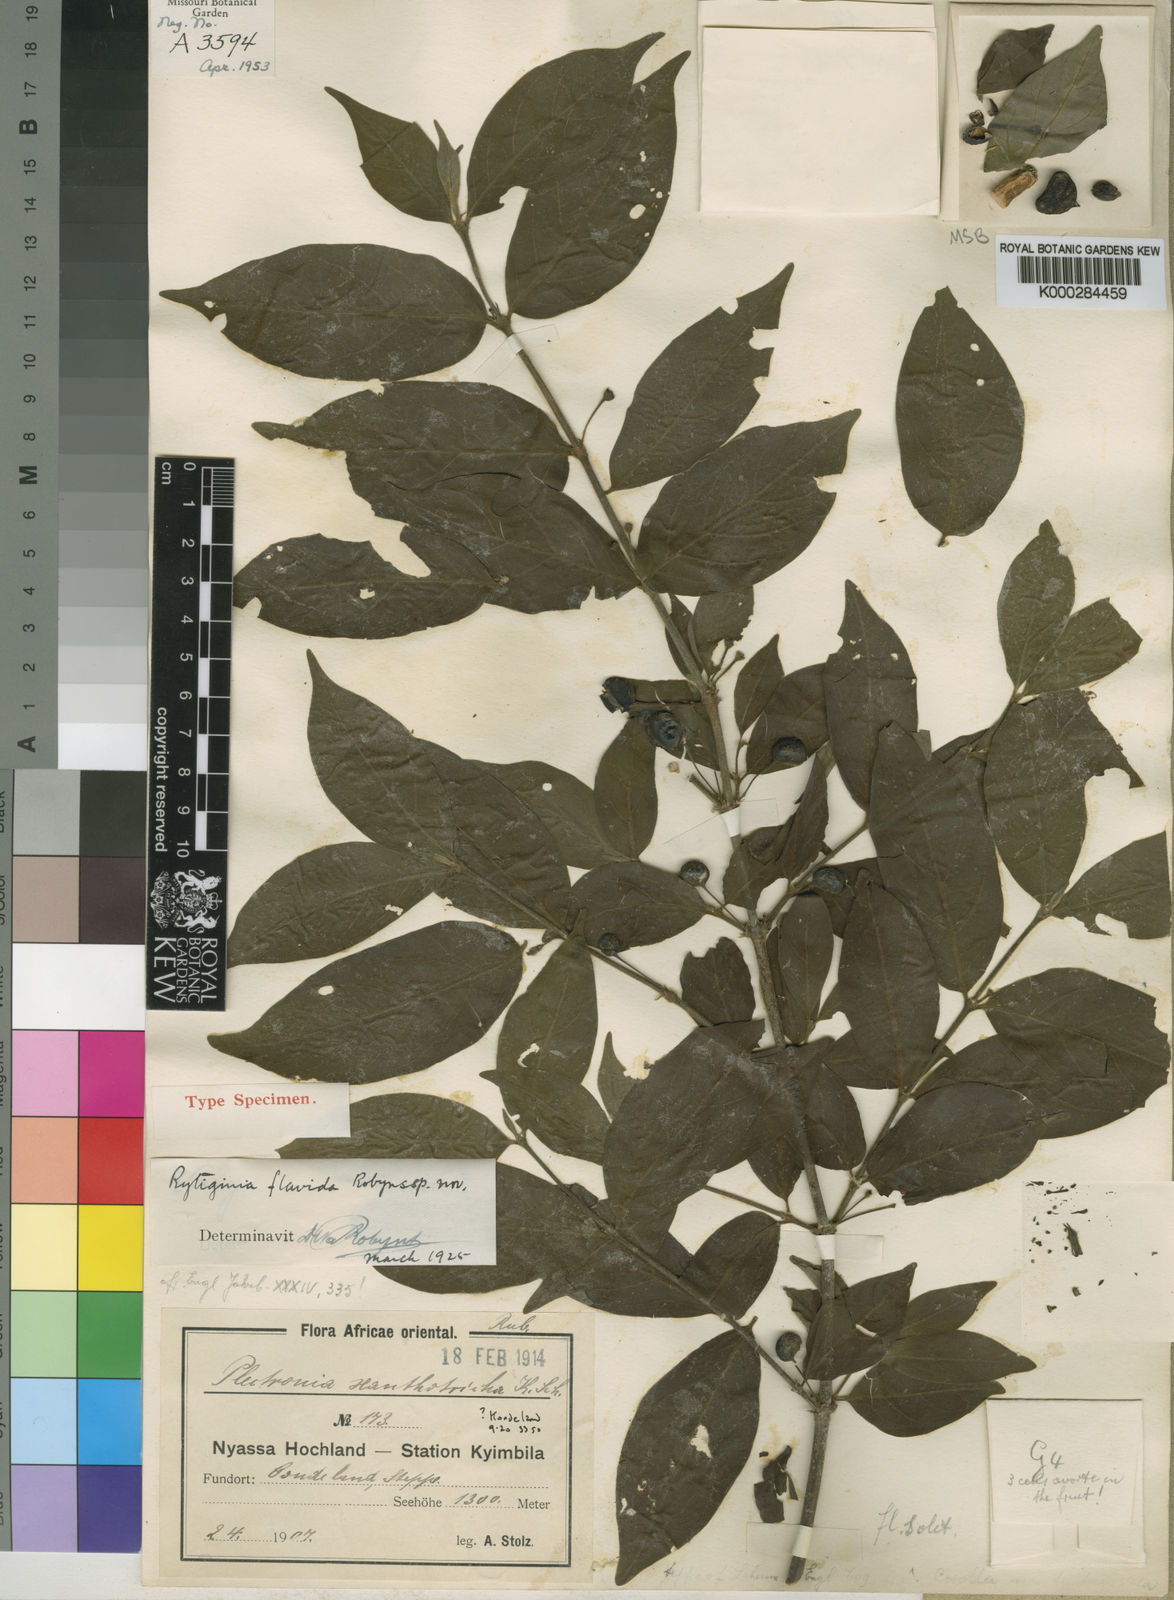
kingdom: Plantae
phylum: Tracheophyta
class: Magnoliopsida
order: Gentianales
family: Rubiaceae
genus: Rytigynia
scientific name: Rytigynia flavida
